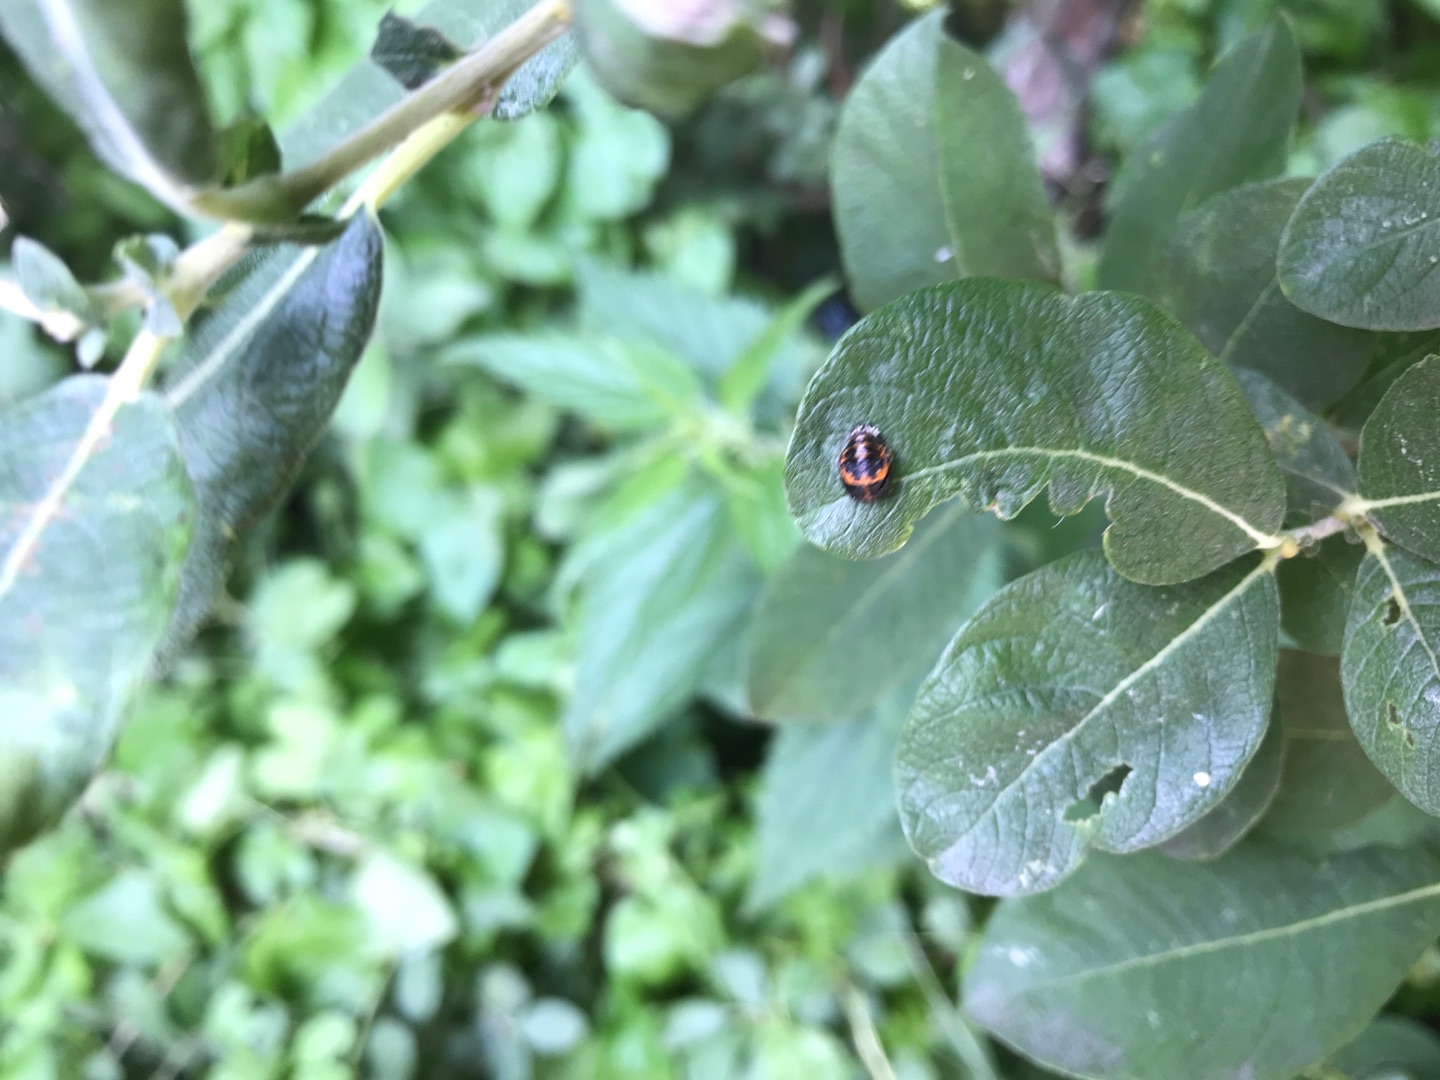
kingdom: Animalia
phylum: Arthropoda
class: Insecta
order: Coleoptera
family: Coccinellidae
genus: Harmonia
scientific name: Harmonia axyridis
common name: Harlekinmariehøne
